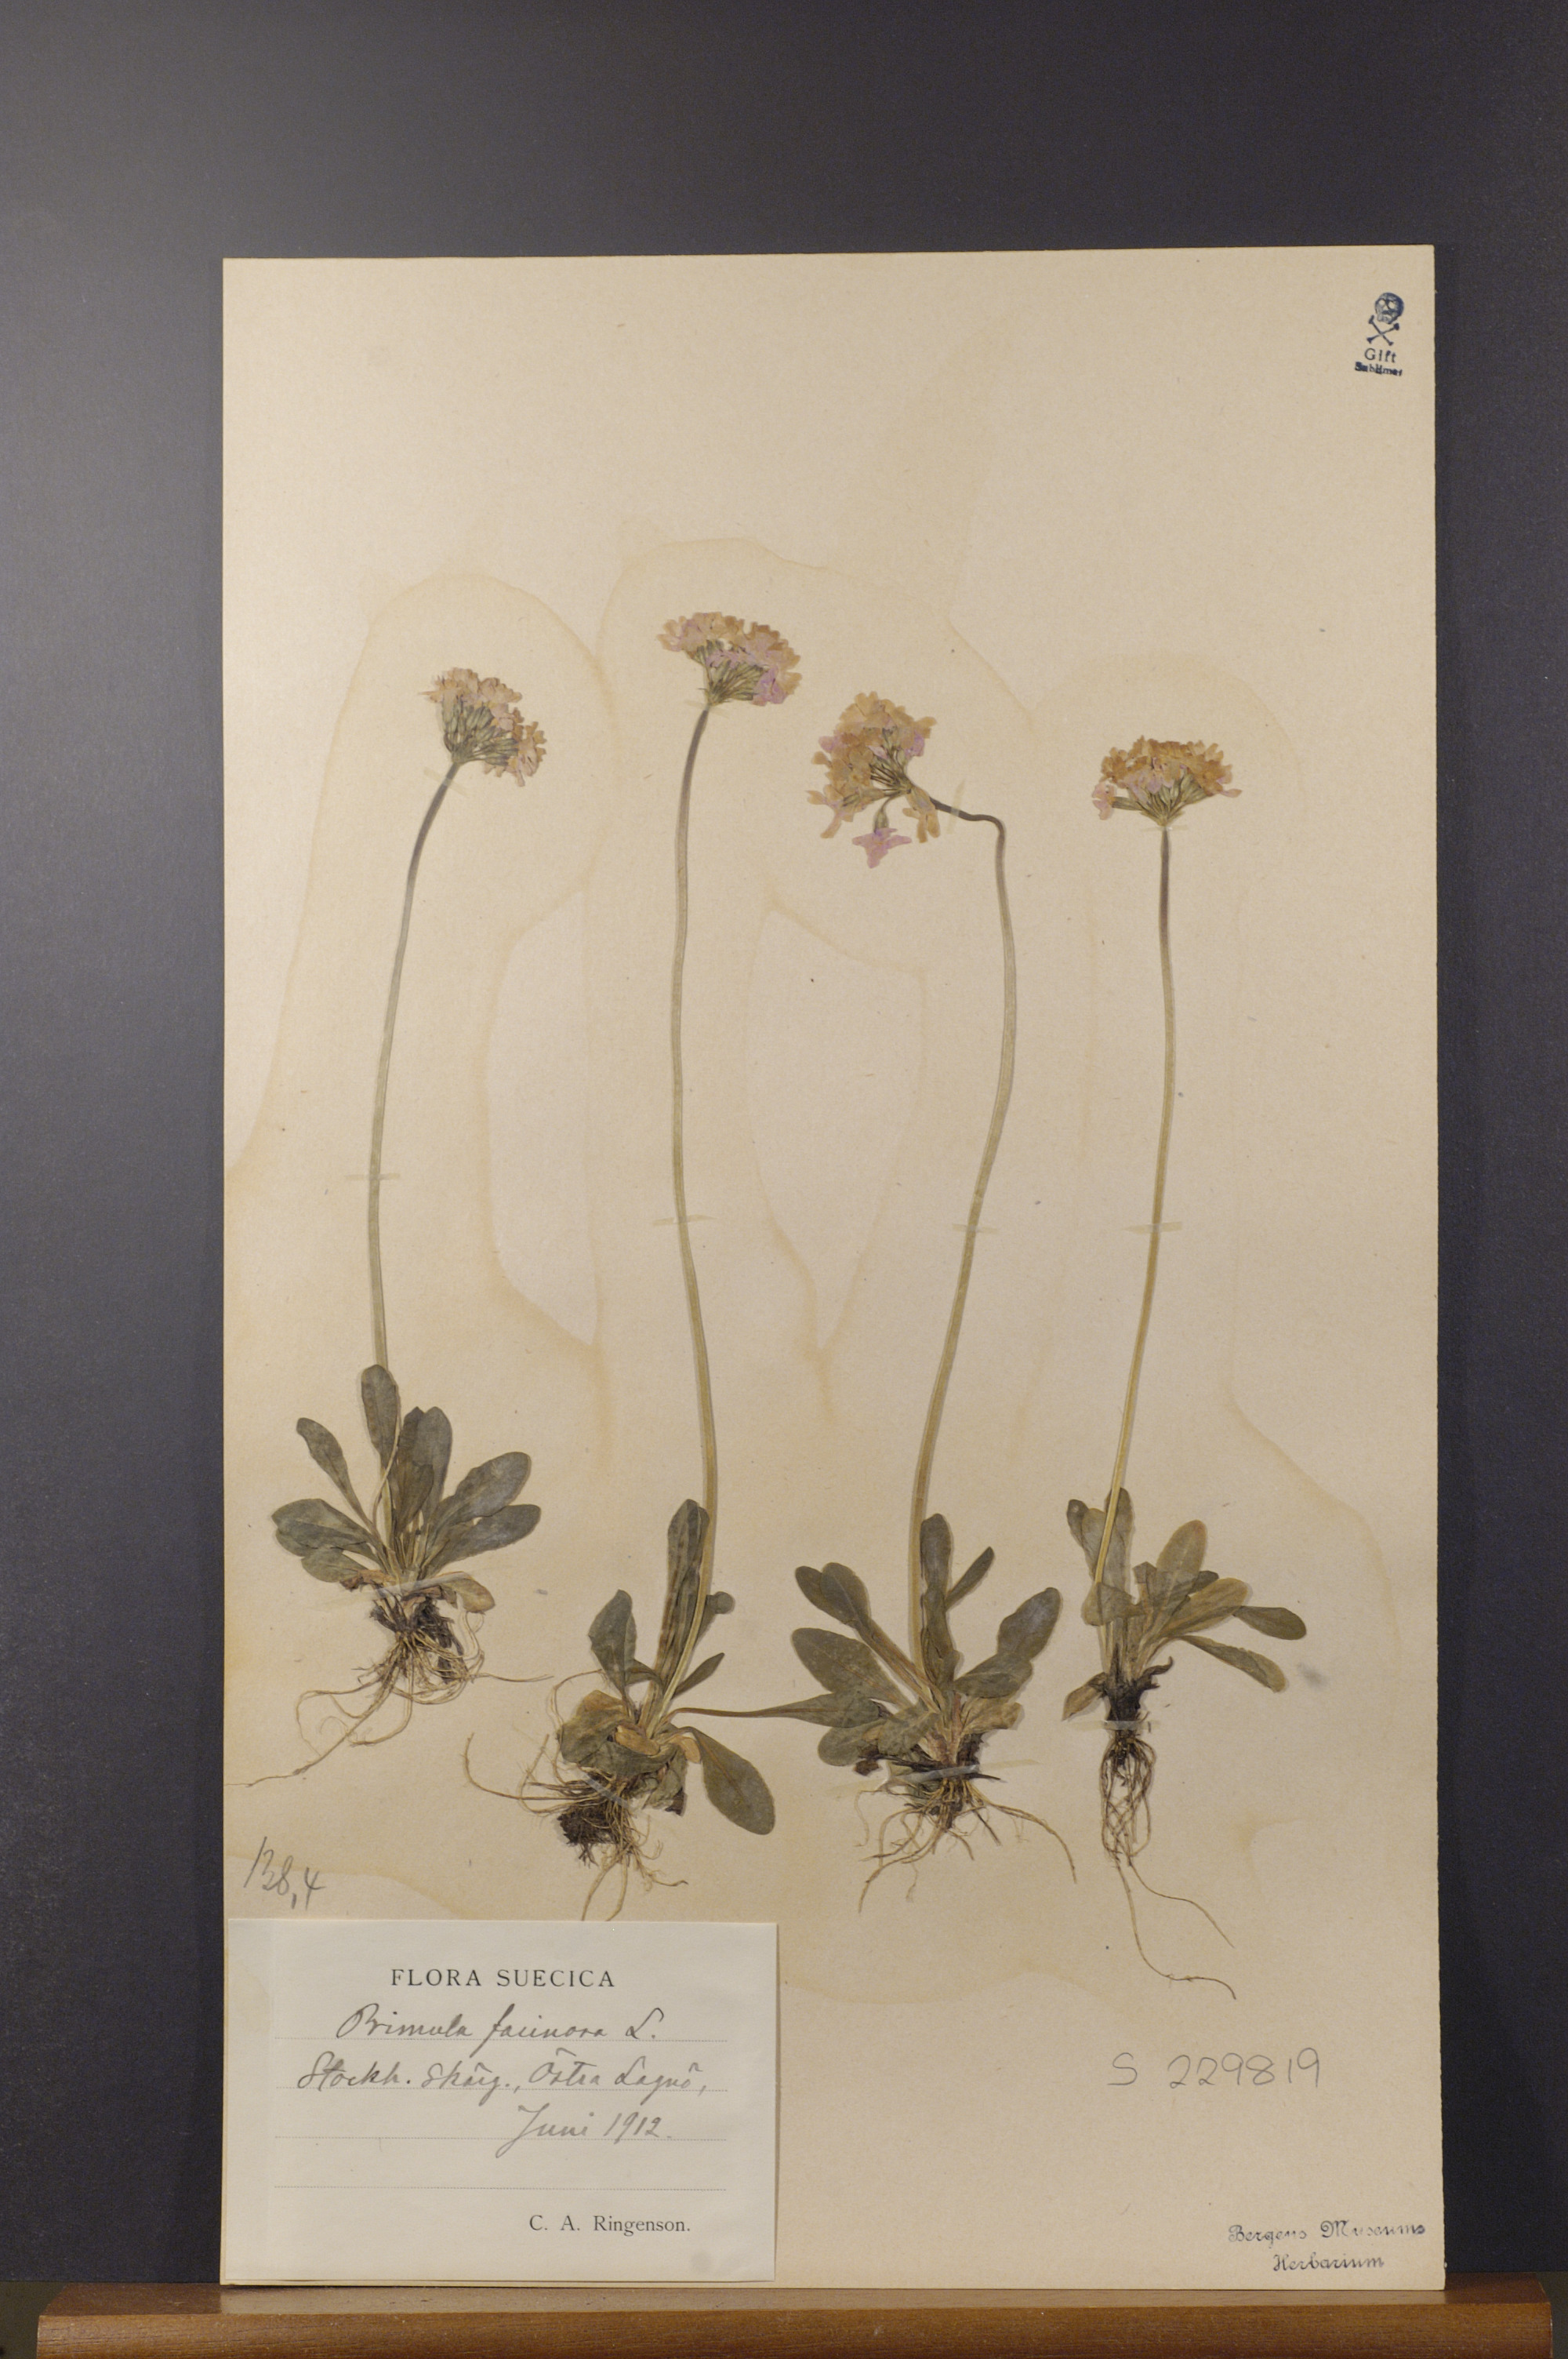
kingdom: Plantae
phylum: Tracheophyta
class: Magnoliopsida
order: Ericales
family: Primulaceae
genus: Primula
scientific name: Primula farinosa
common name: Bird's-eye primrose
